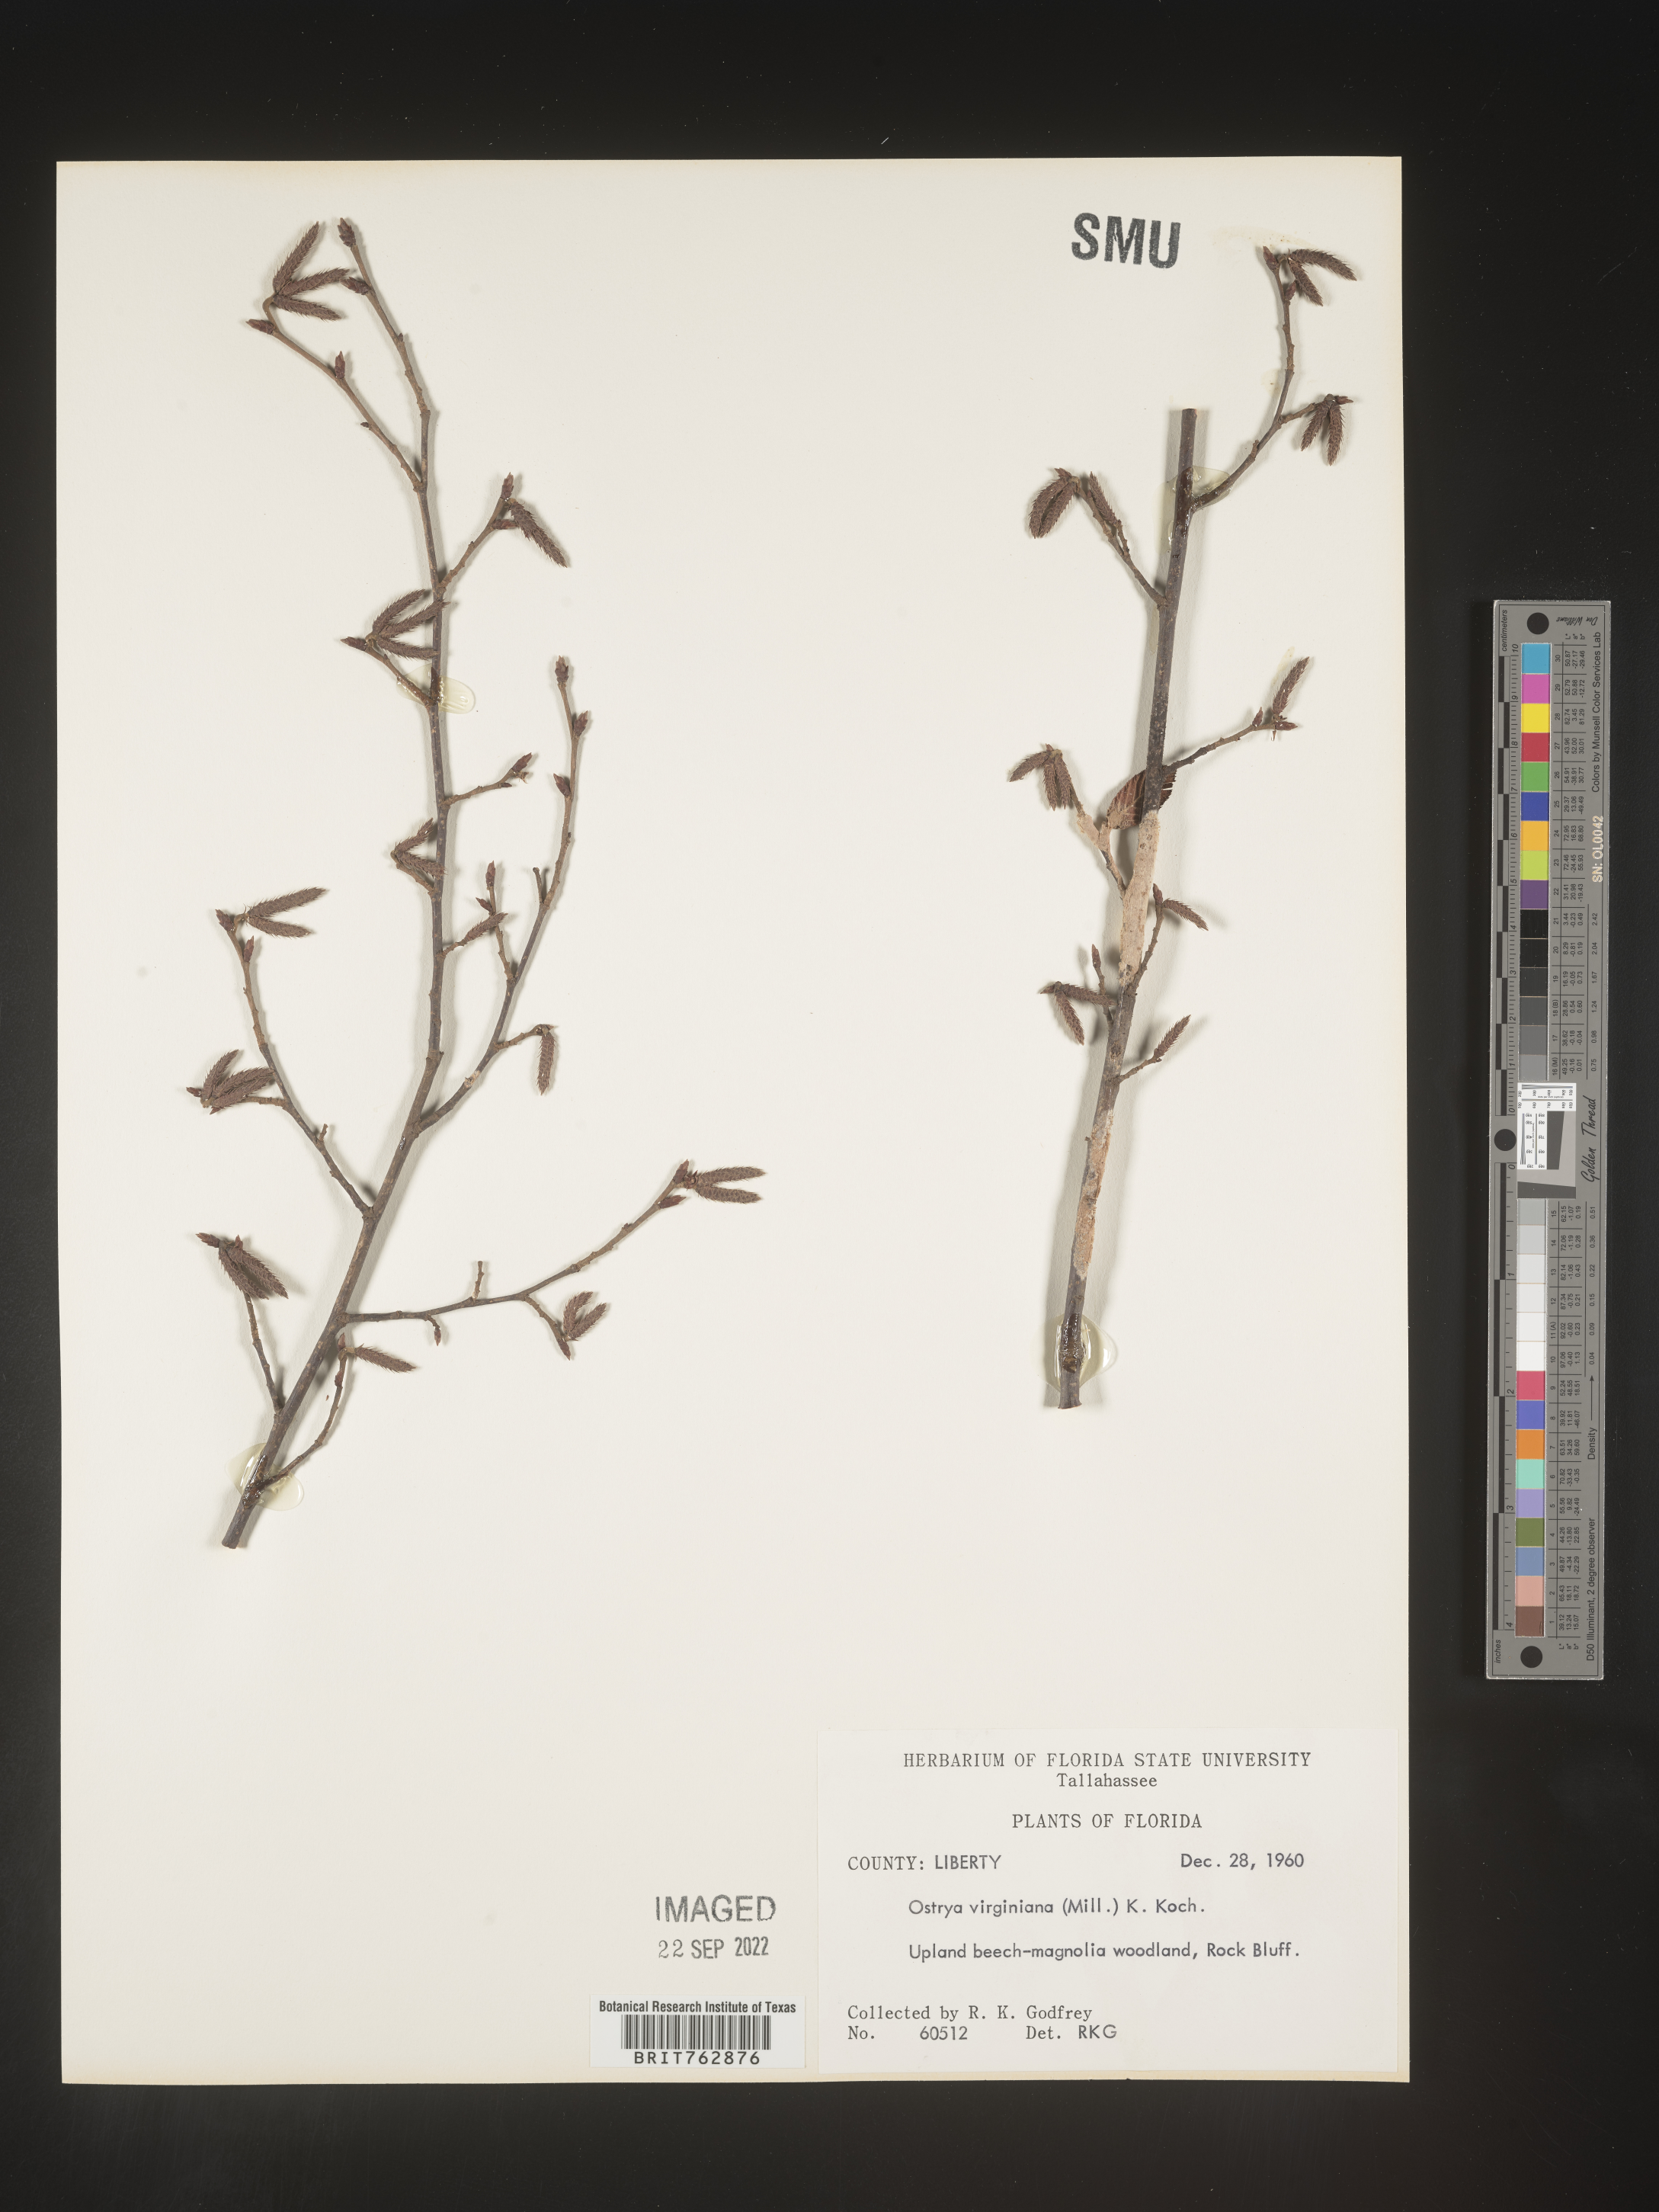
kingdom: Plantae
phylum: Tracheophyta
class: Magnoliopsida
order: Fagales
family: Betulaceae
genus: Ostrya
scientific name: Ostrya virginiana
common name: Ironwood
